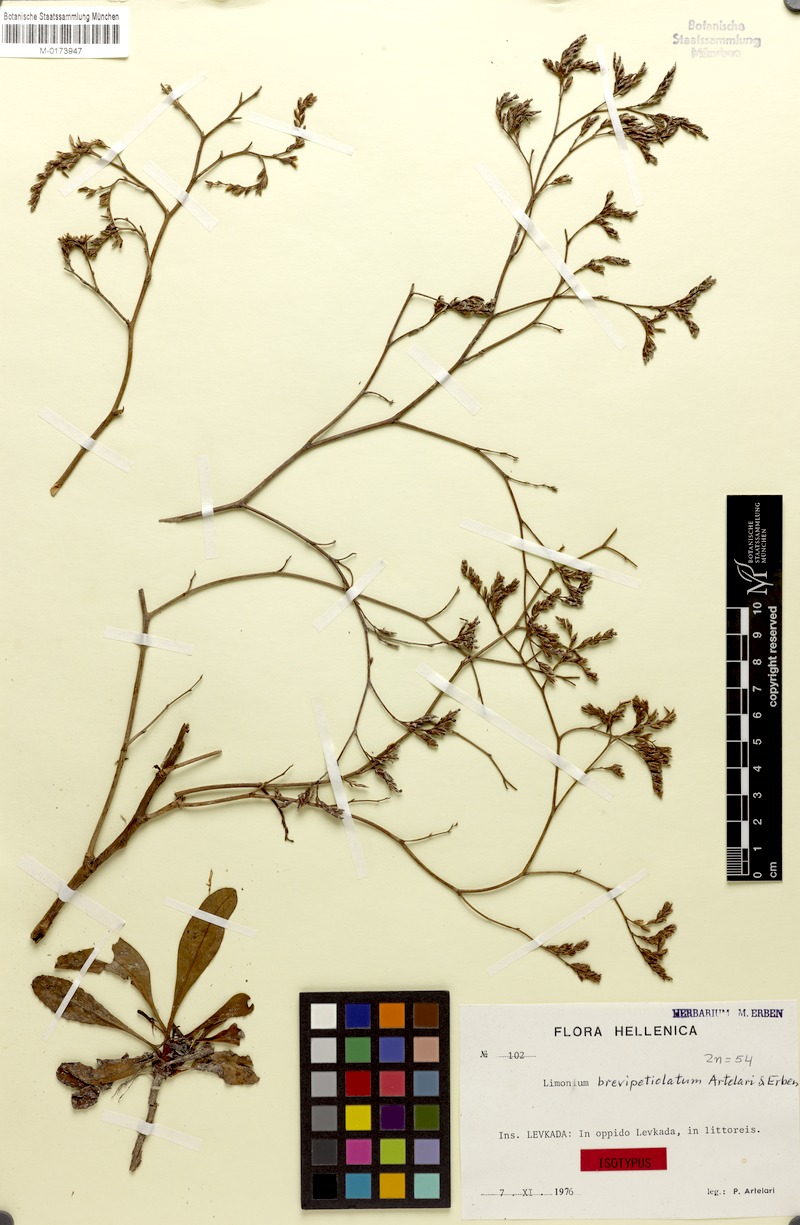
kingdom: Plantae
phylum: Tracheophyta
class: Magnoliopsida
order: Caryophyllales
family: Plumbaginaceae
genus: Limonium
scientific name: Limonium brevipetiolatum
